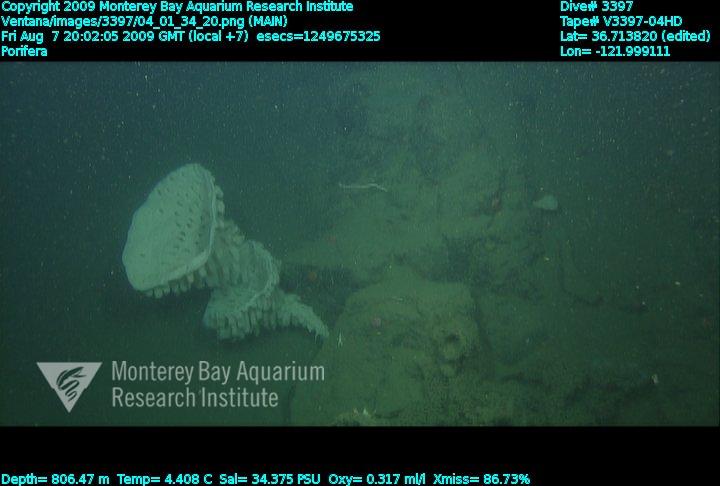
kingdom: Animalia
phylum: Porifera
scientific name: Porifera
